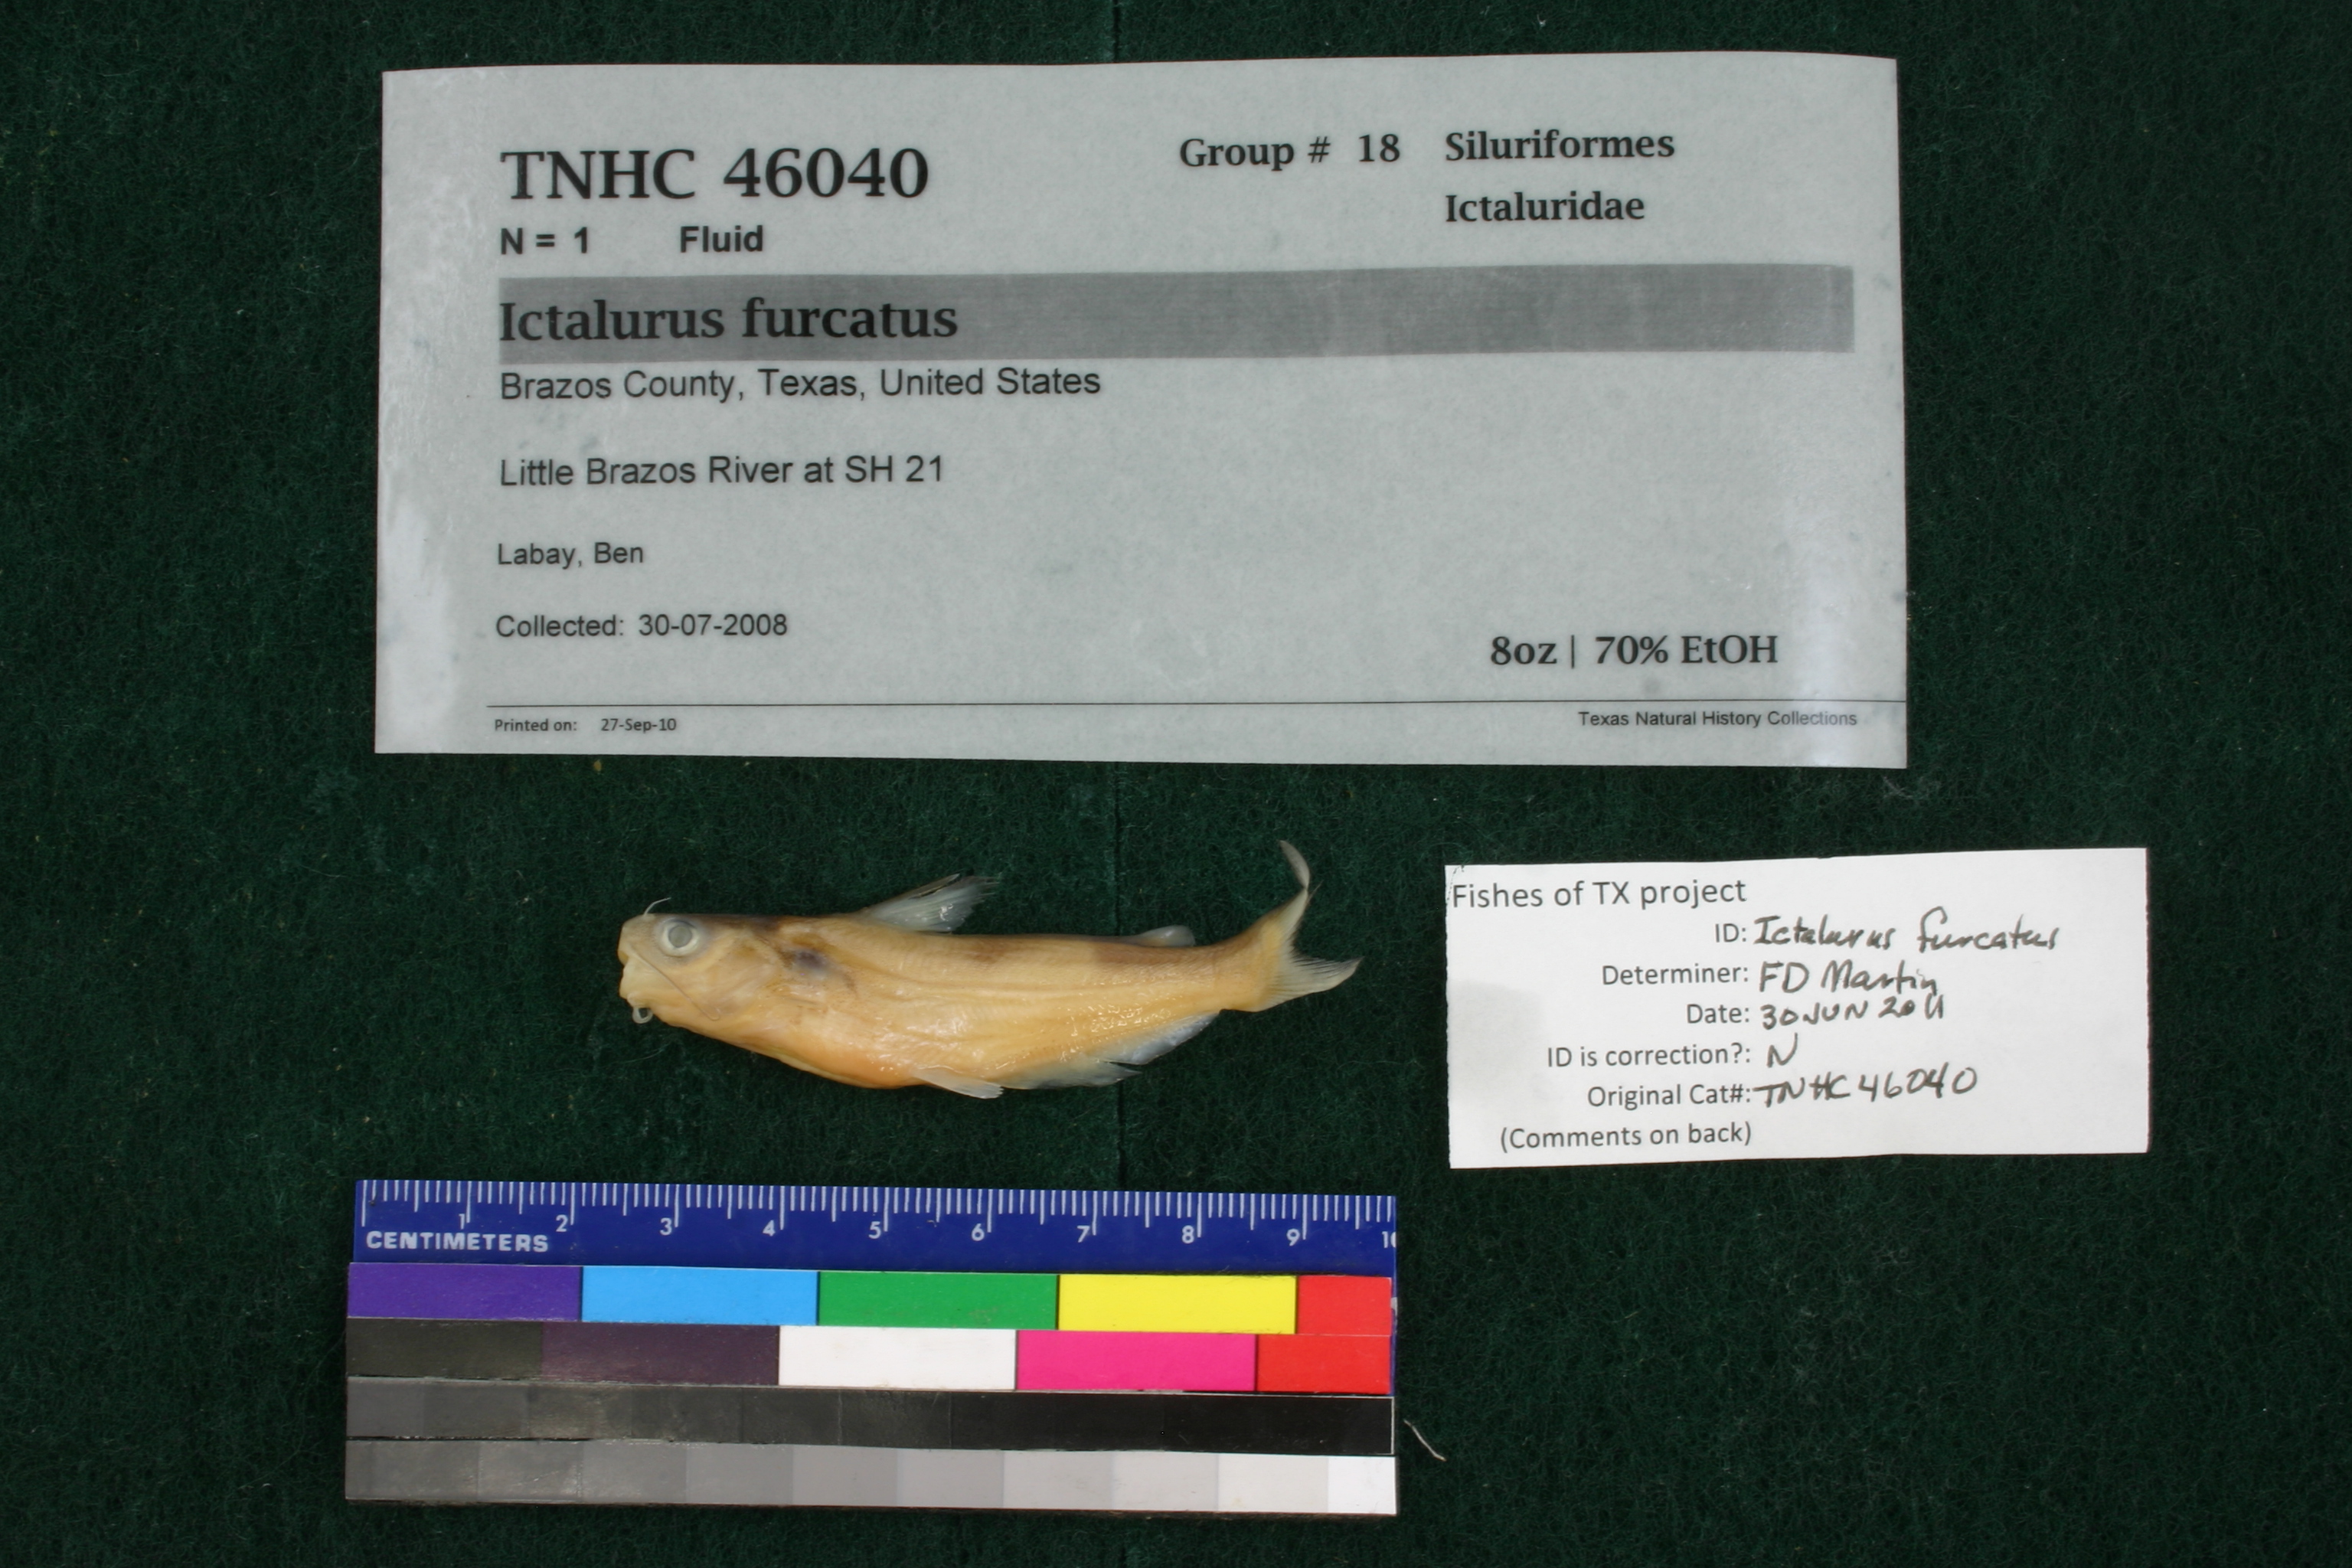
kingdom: Animalia
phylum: Chordata
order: Siluriformes
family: Ictaluridae
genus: Ictalurus
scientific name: Ictalurus furcatus
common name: Blue catfish
